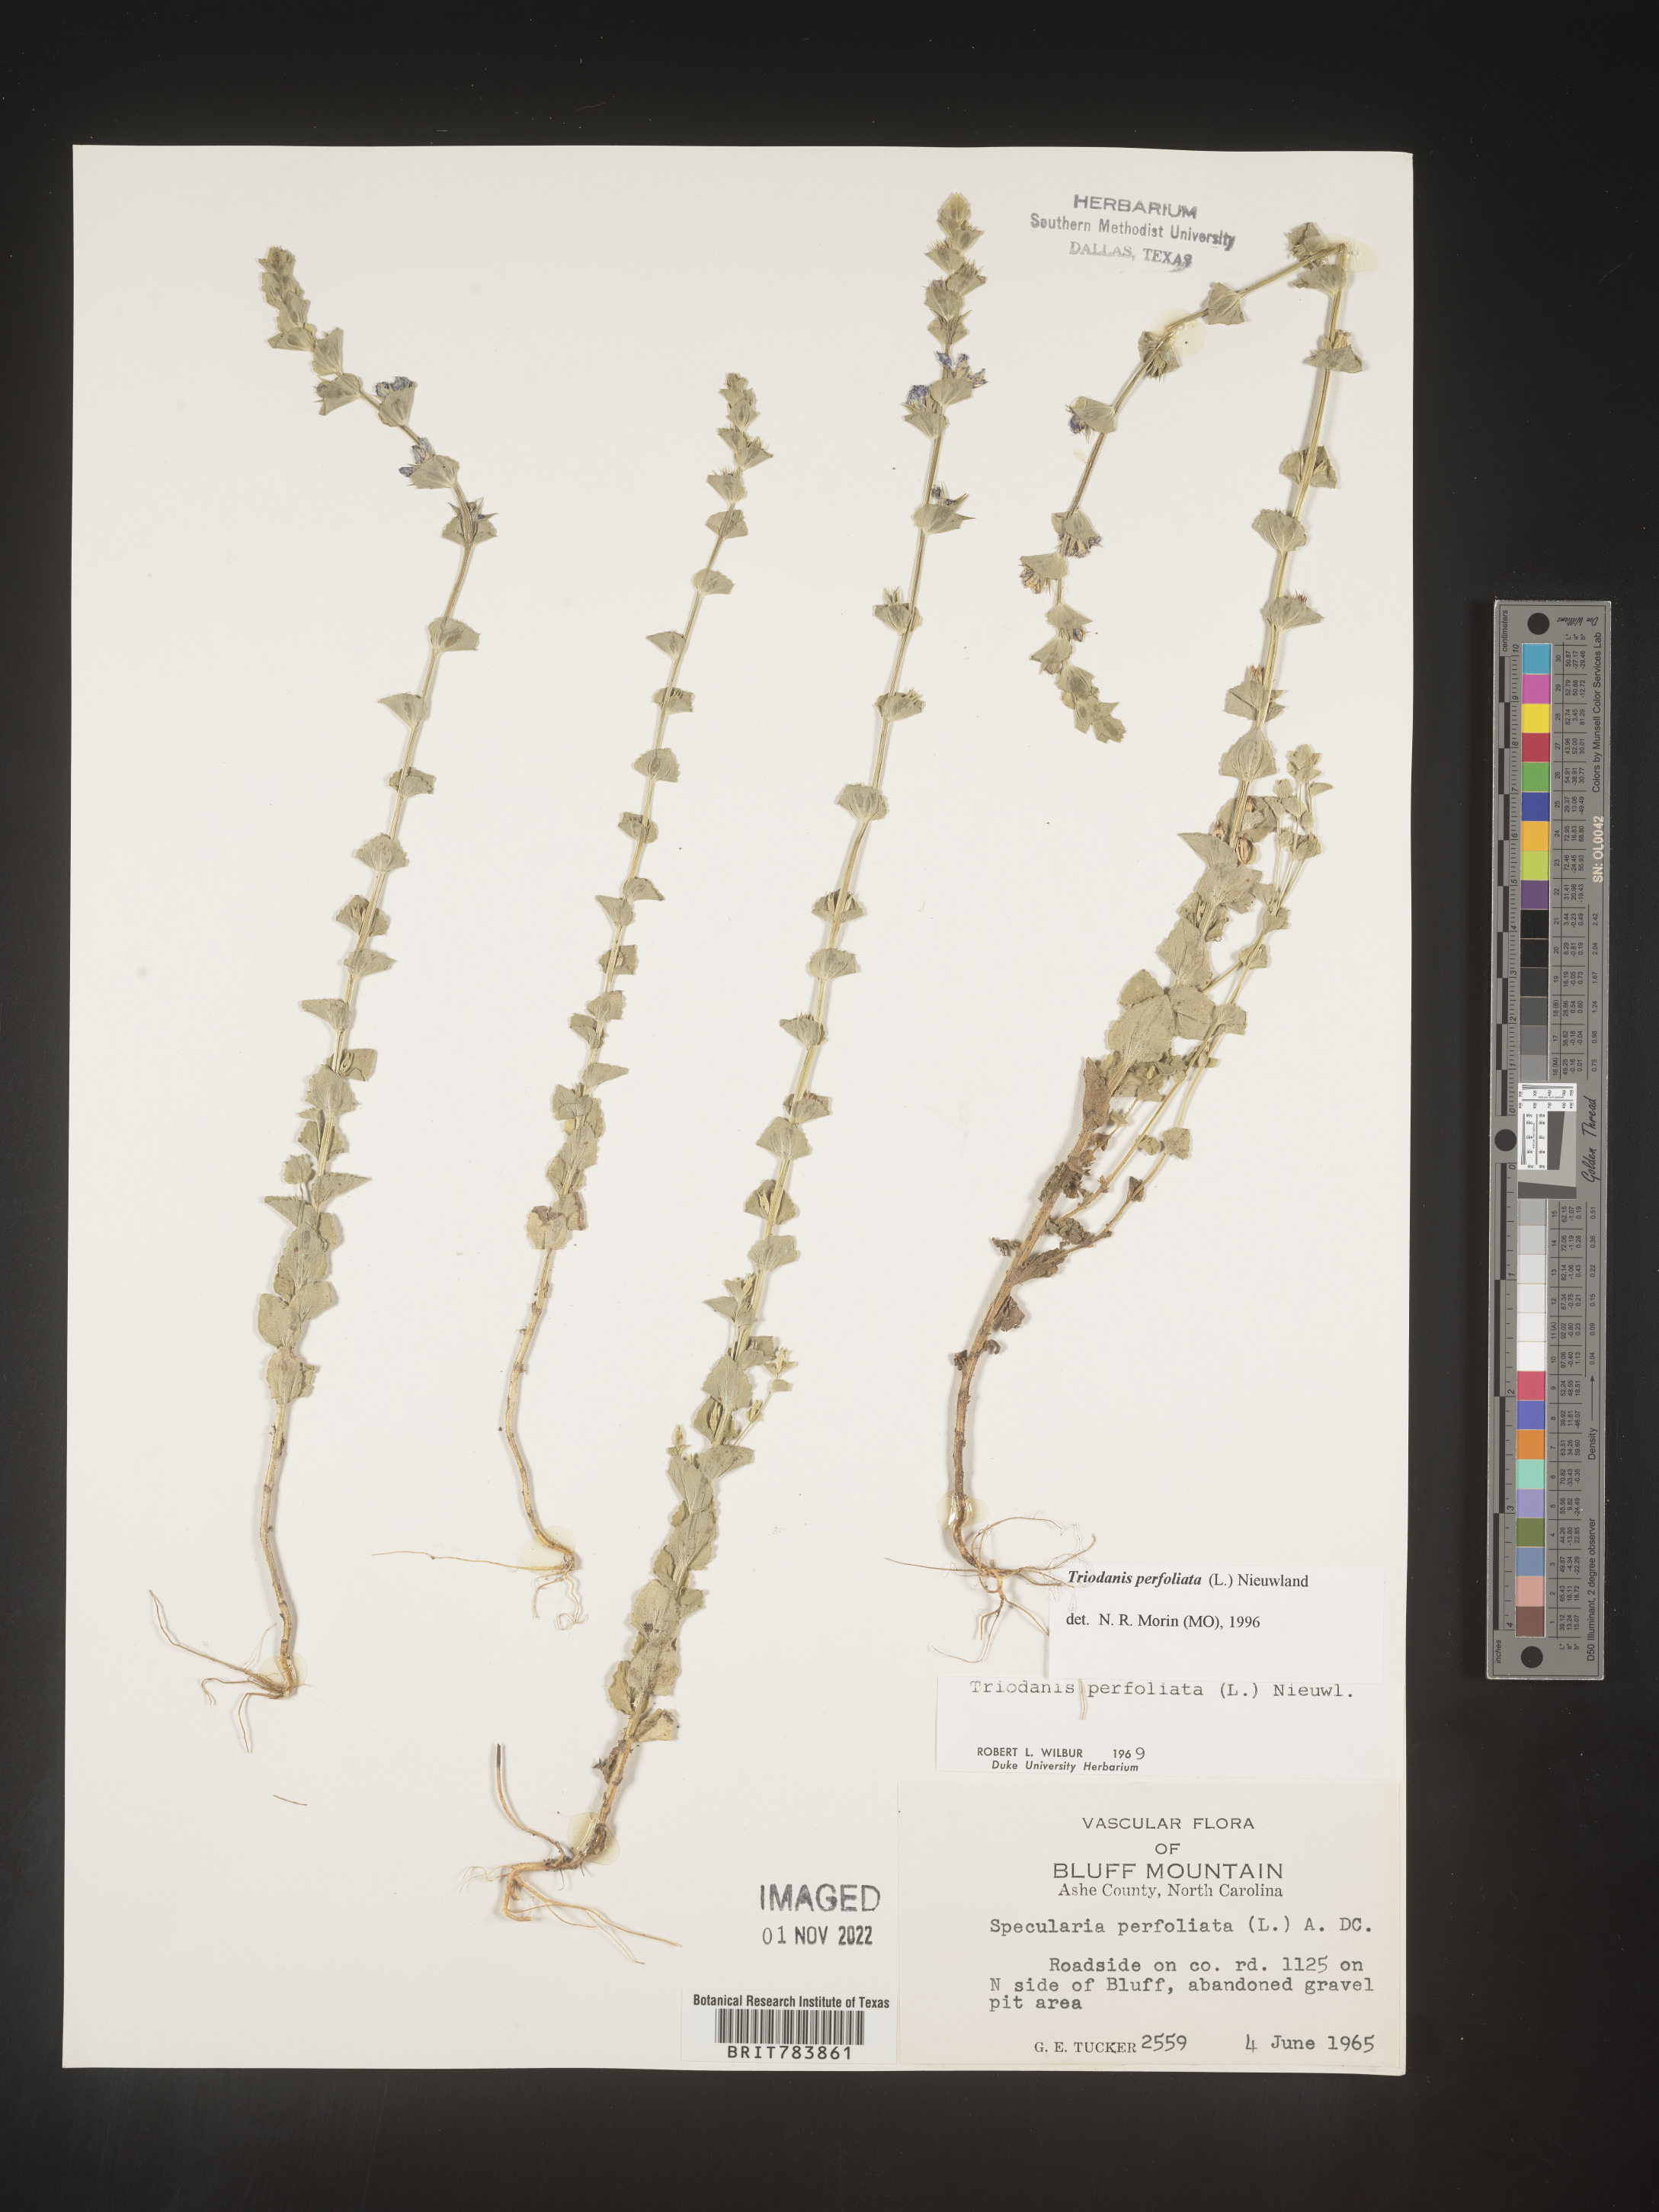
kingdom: Plantae
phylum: Tracheophyta
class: Magnoliopsida
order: Asterales
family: Campanulaceae
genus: Triodanis
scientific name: Triodanis perfoliata
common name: Clasping venus' looking-glass
